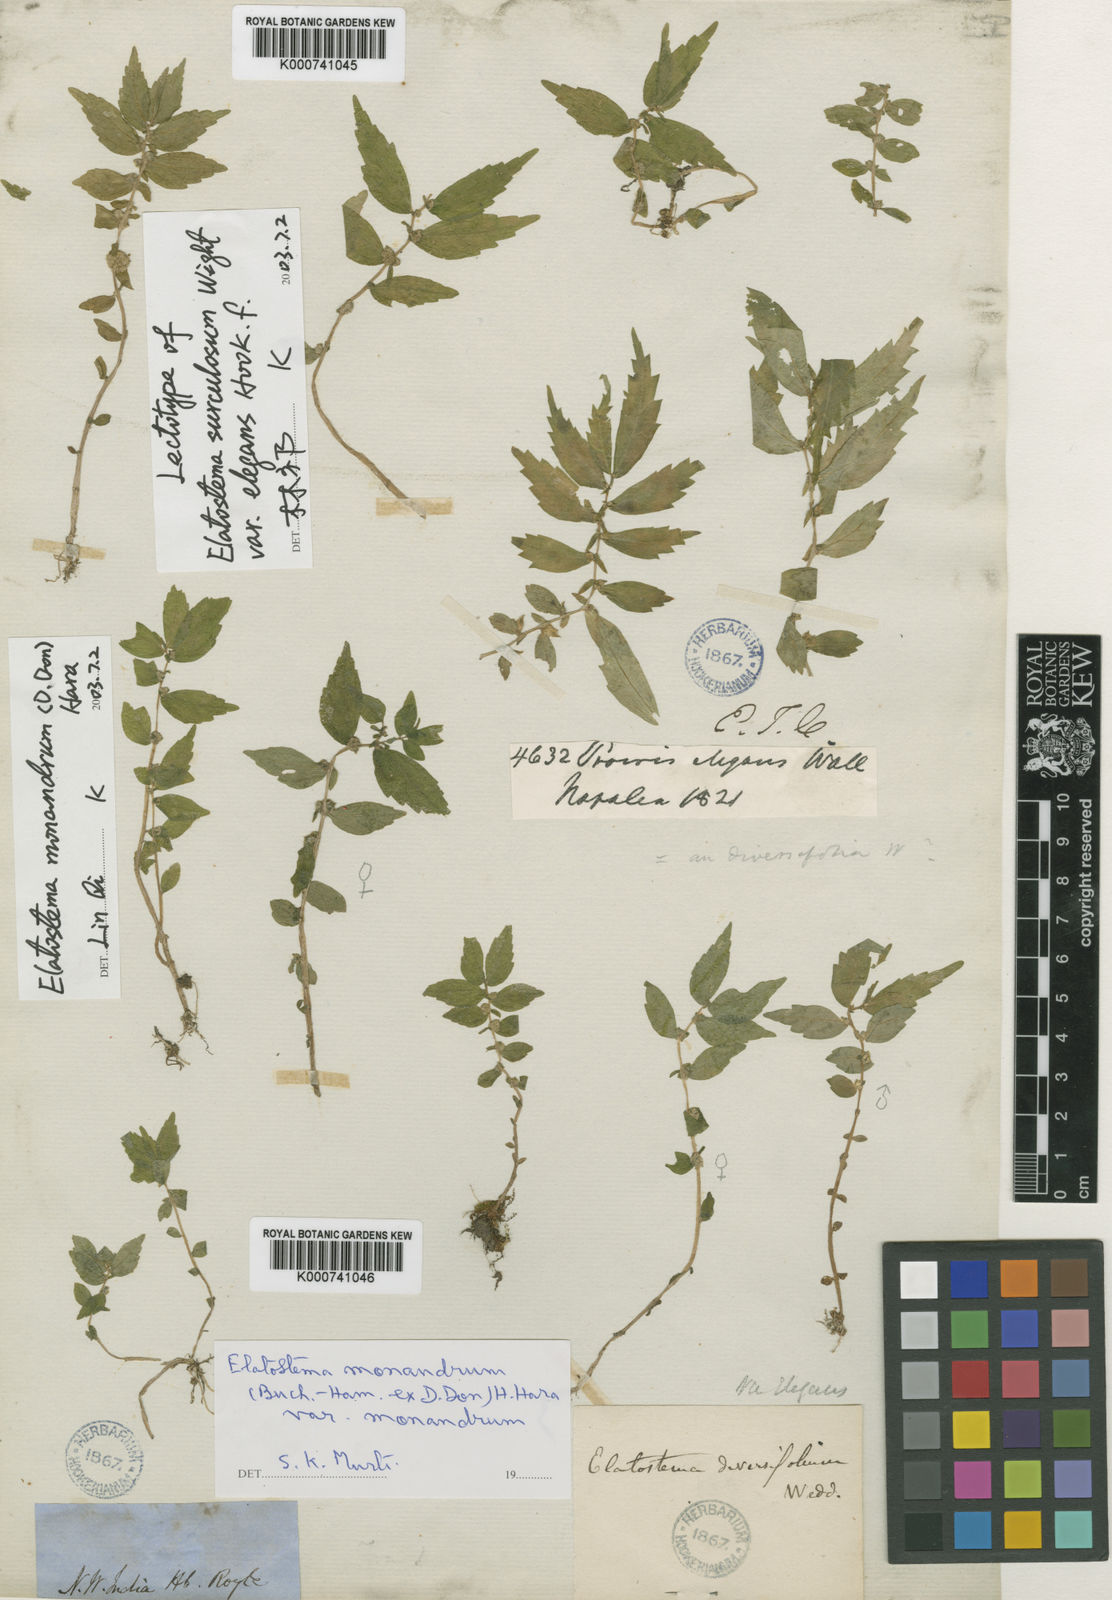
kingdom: Plantae
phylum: Tracheophyta
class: Magnoliopsida
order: Rosales
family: Urticaceae
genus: Elatostema
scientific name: Elatostema monandrum
